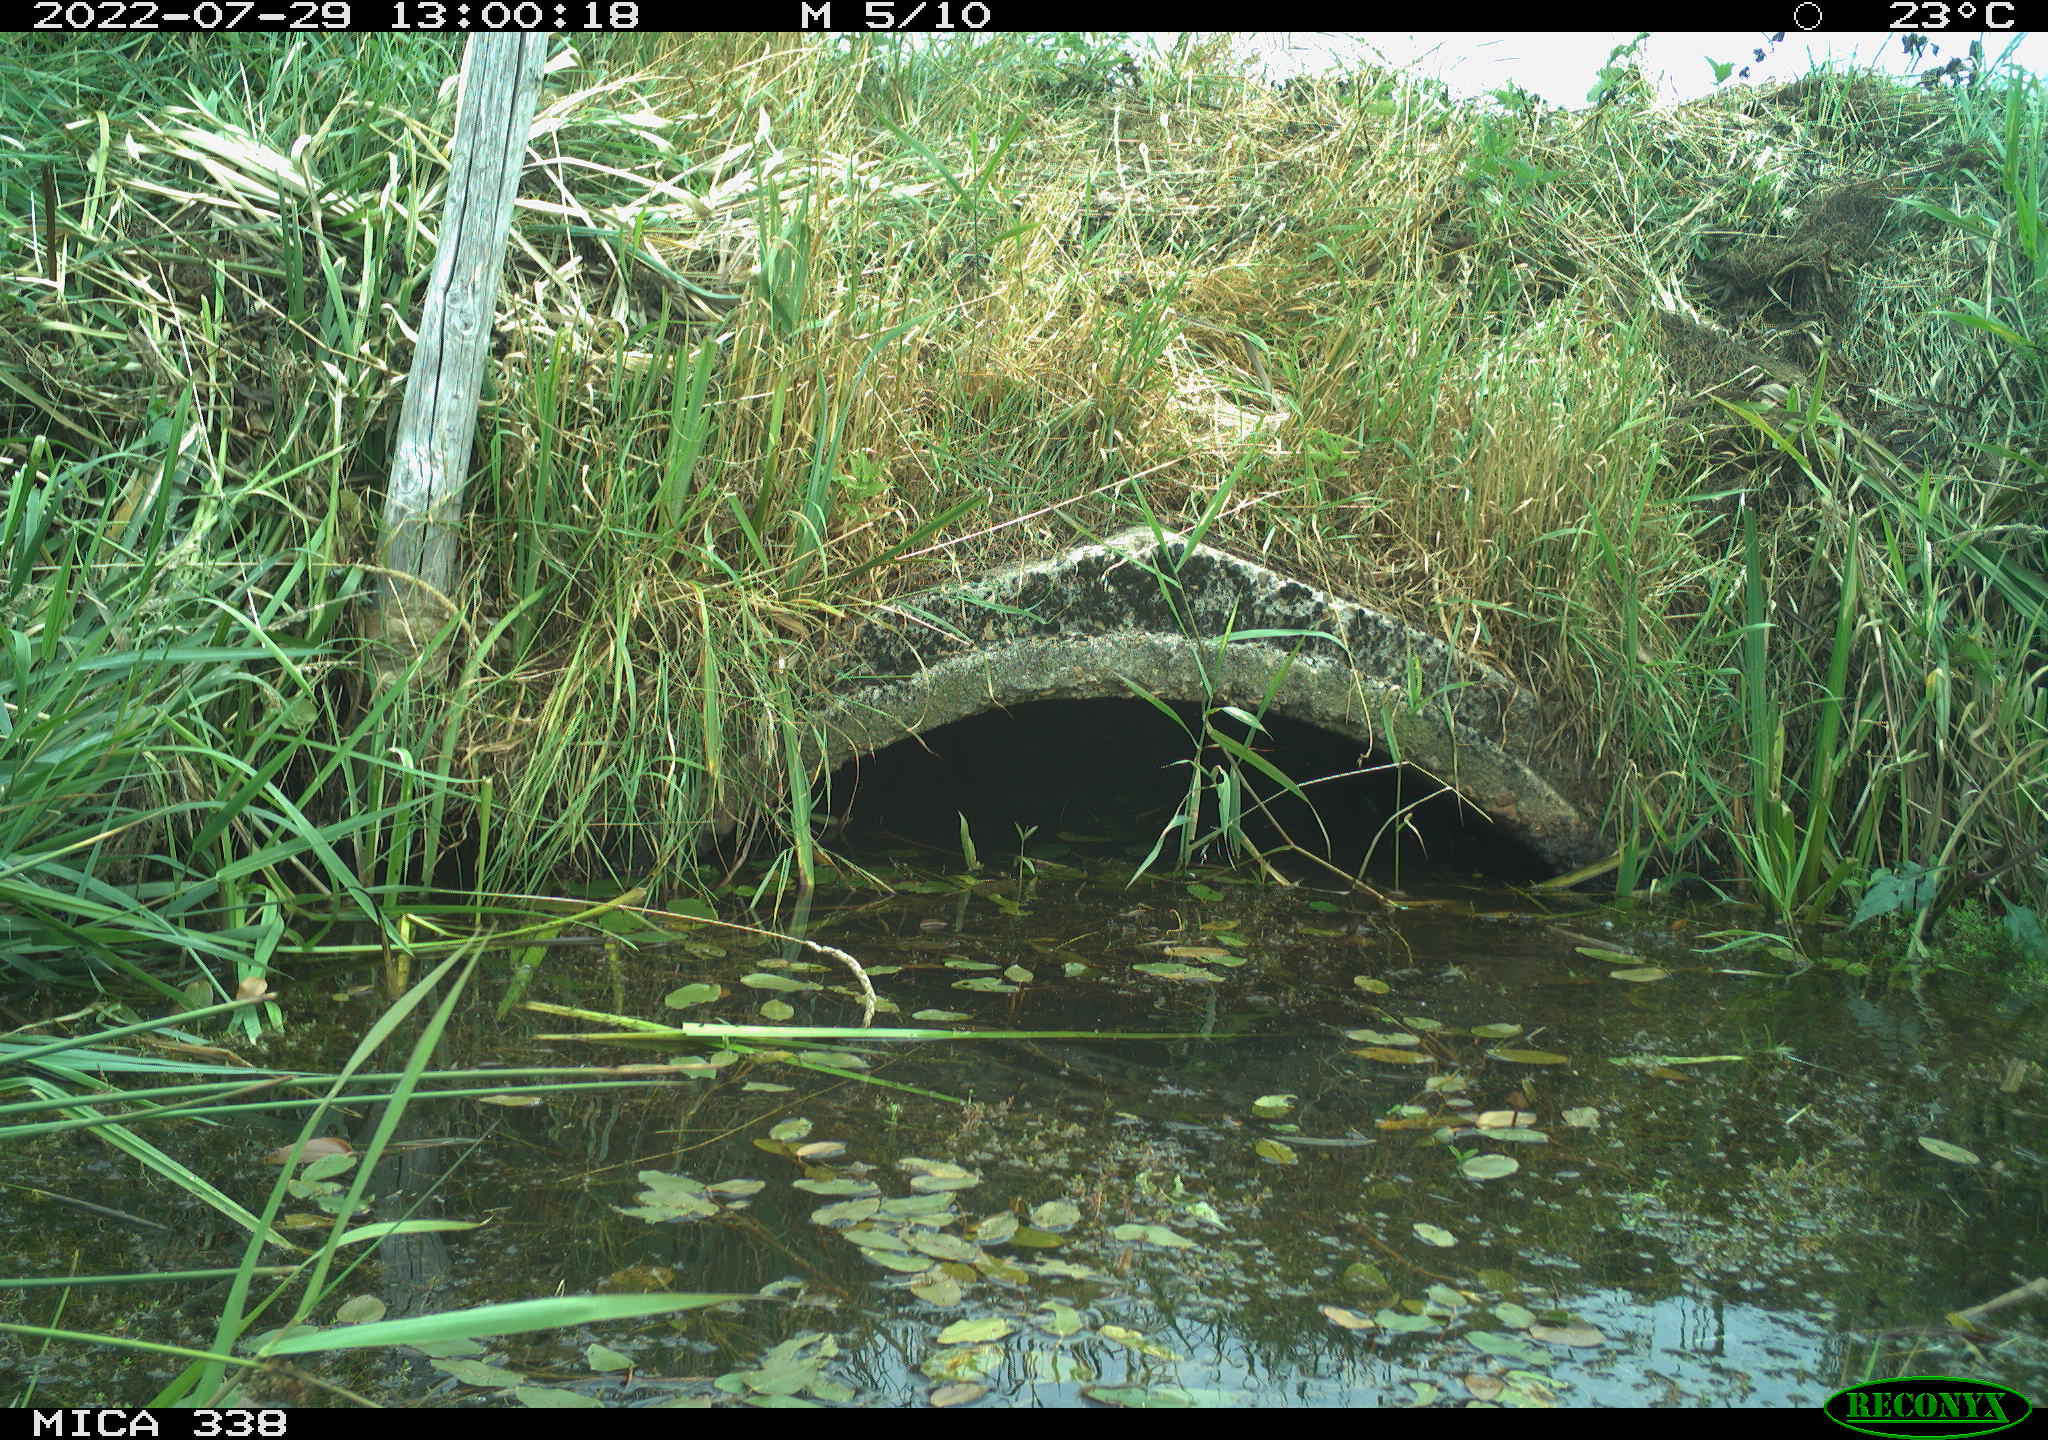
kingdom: Animalia
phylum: Chordata
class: Aves
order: Anseriformes
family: Anatidae
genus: Anas
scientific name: Anas platyrhynchos
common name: Mallard
